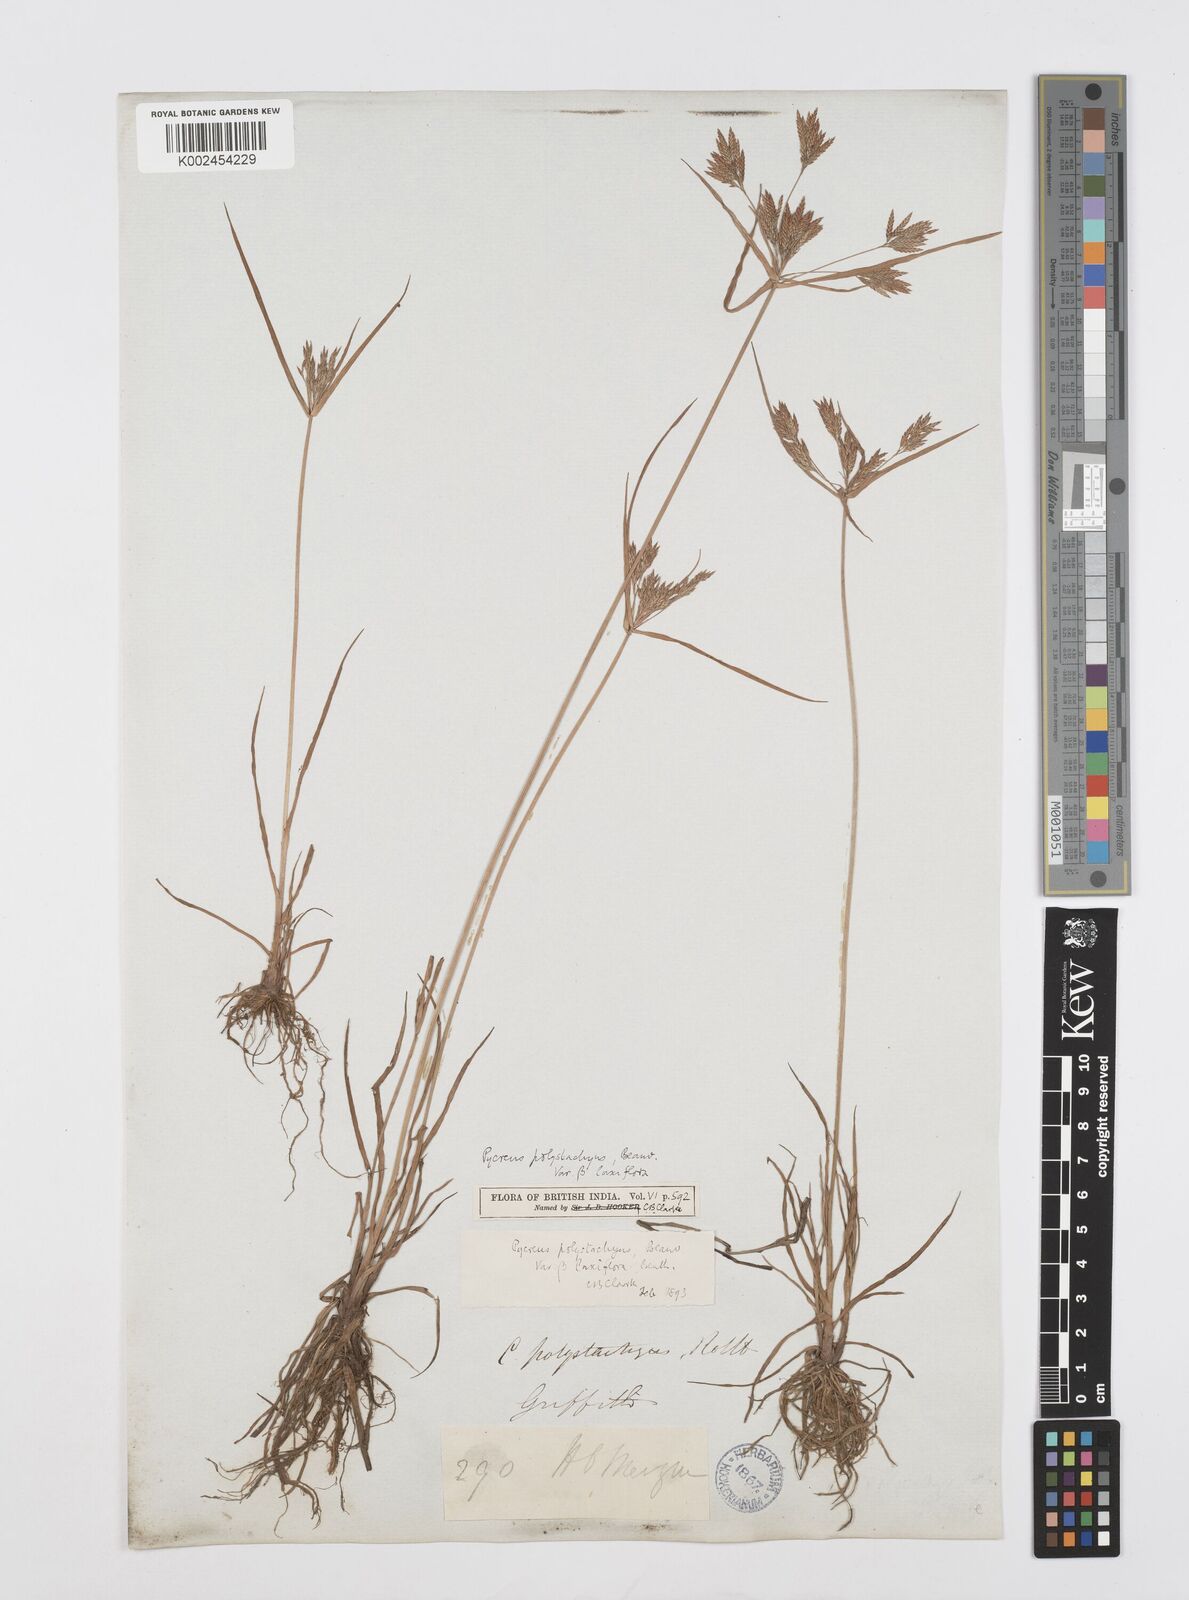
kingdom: Plantae
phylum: Tracheophyta
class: Liliopsida
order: Poales
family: Cyperaceae
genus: Cyperus
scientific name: Cyperus polystachyos
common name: Bunchy flat sedge
